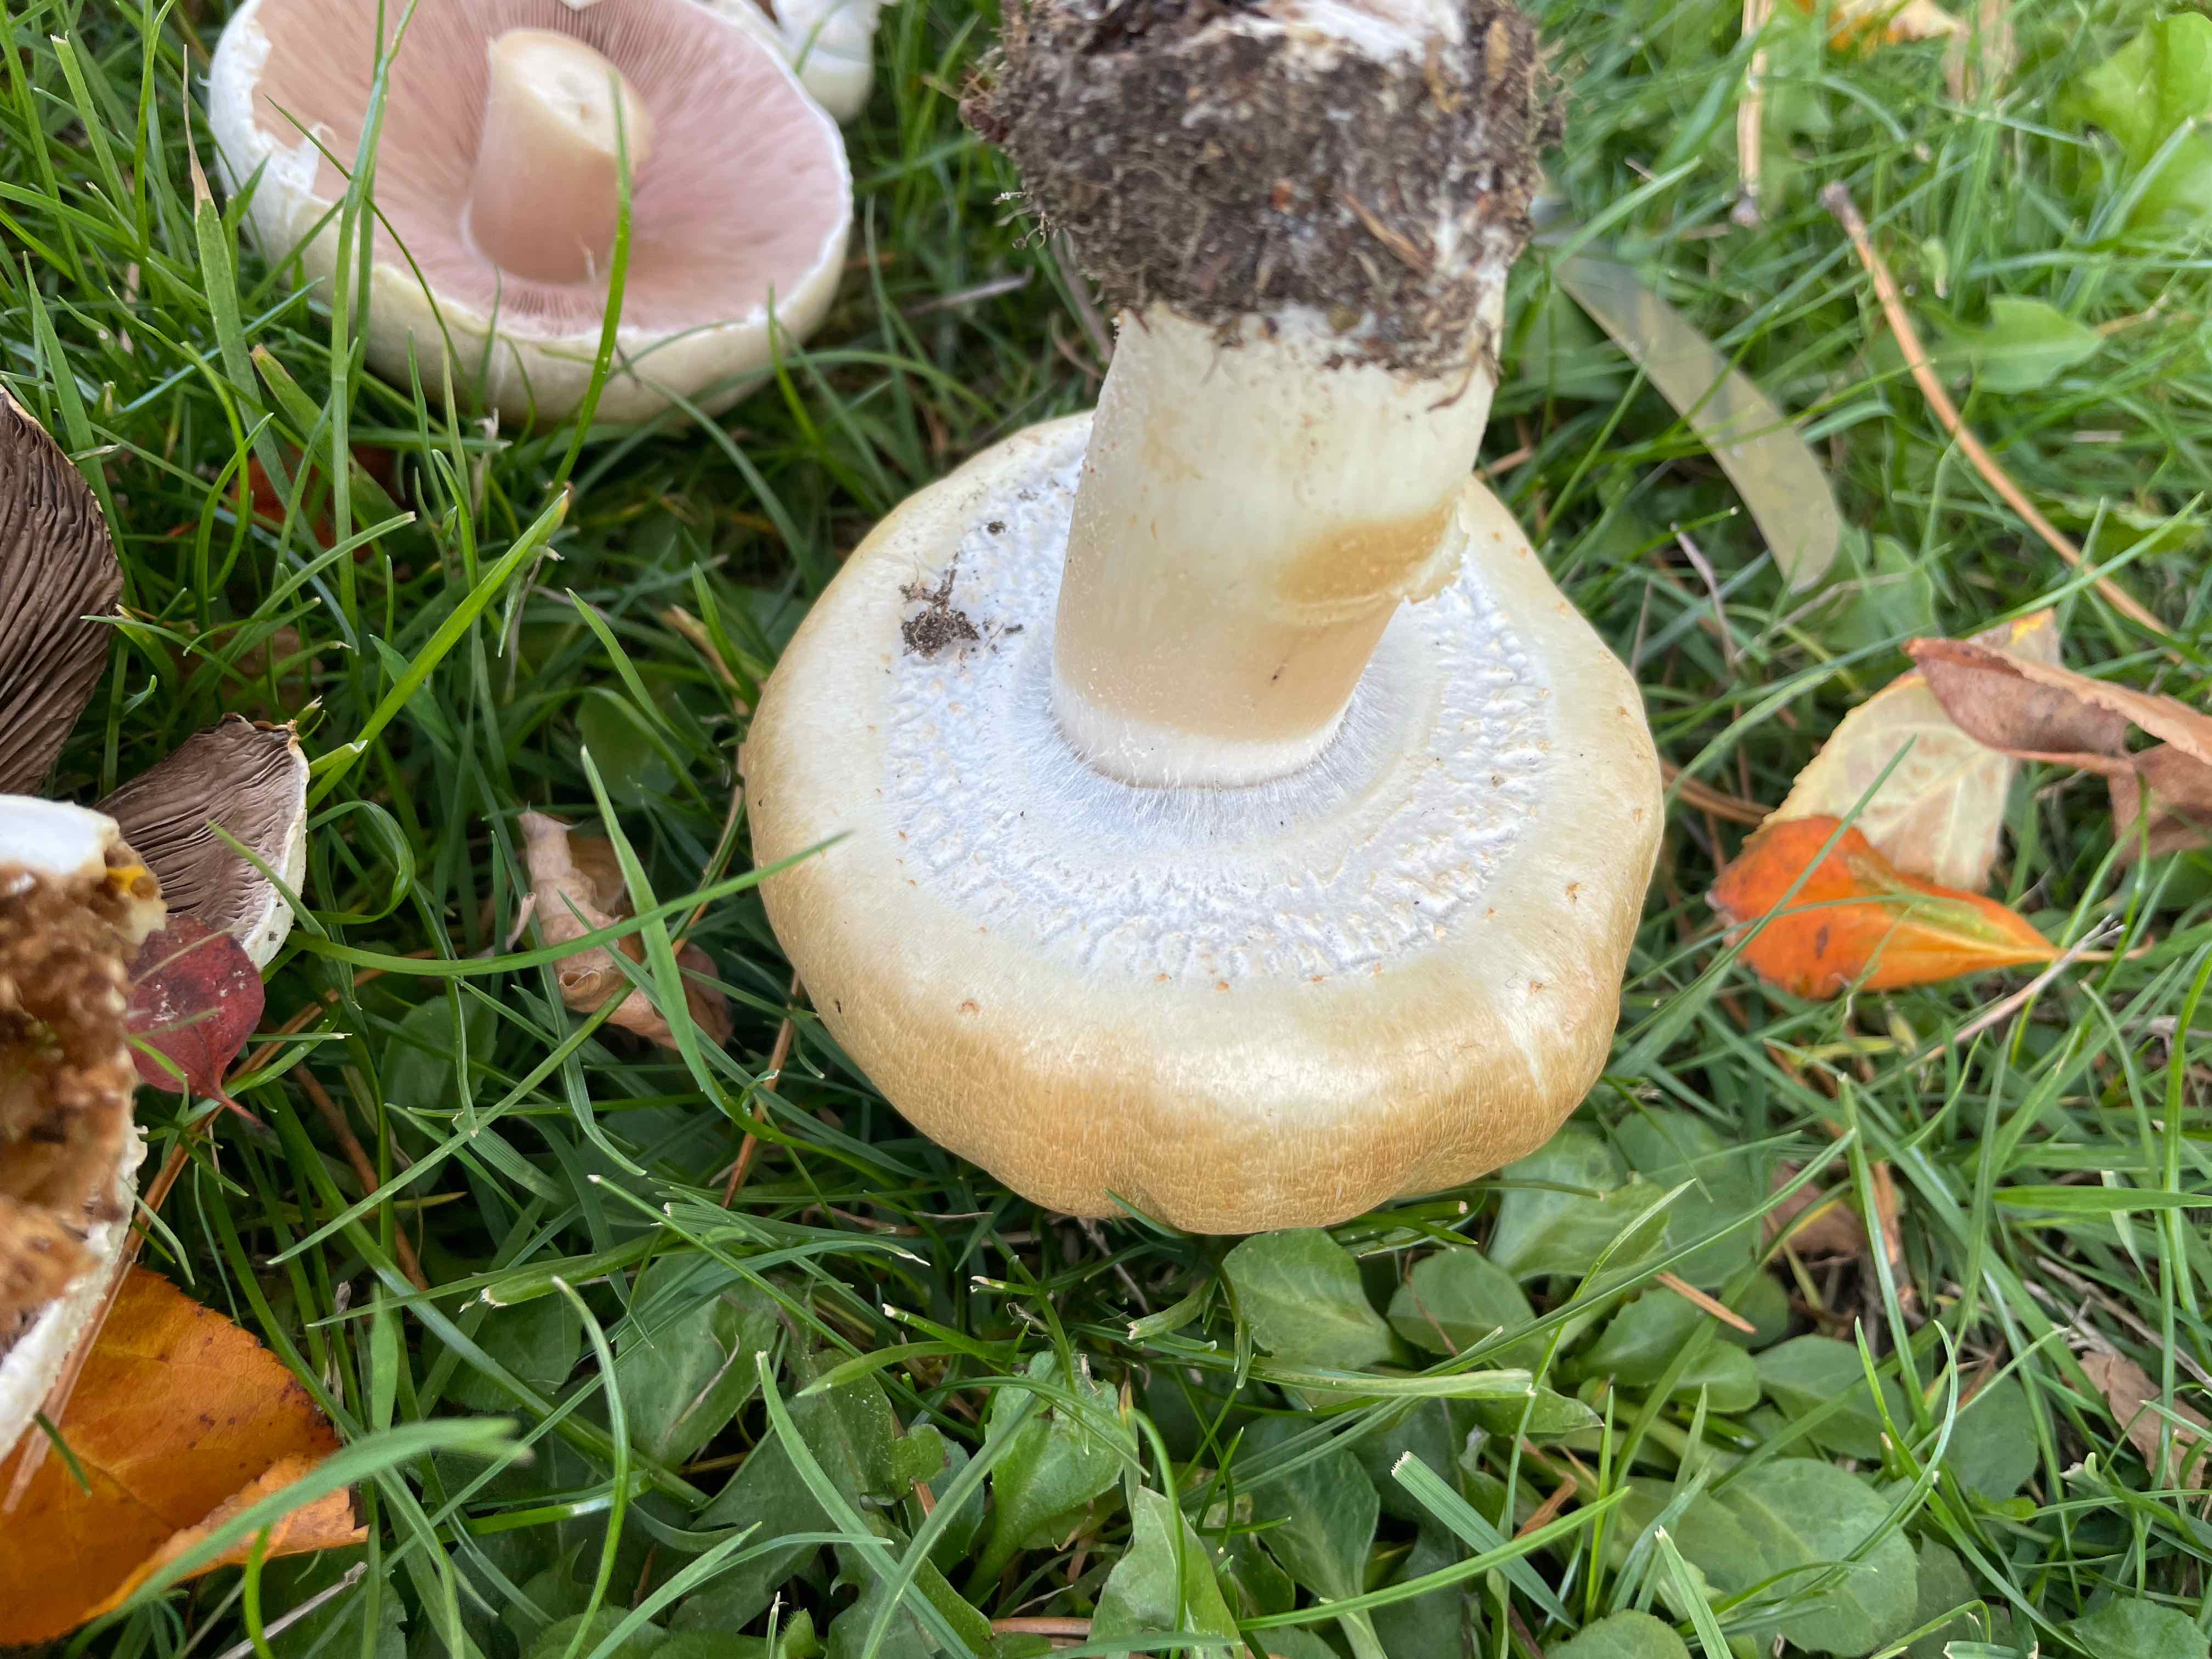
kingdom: Fungi
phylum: Basidiomycota
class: Agaricomycetes
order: Agaricales
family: Agaricaceae
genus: Agaricus
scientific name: Agaricus
